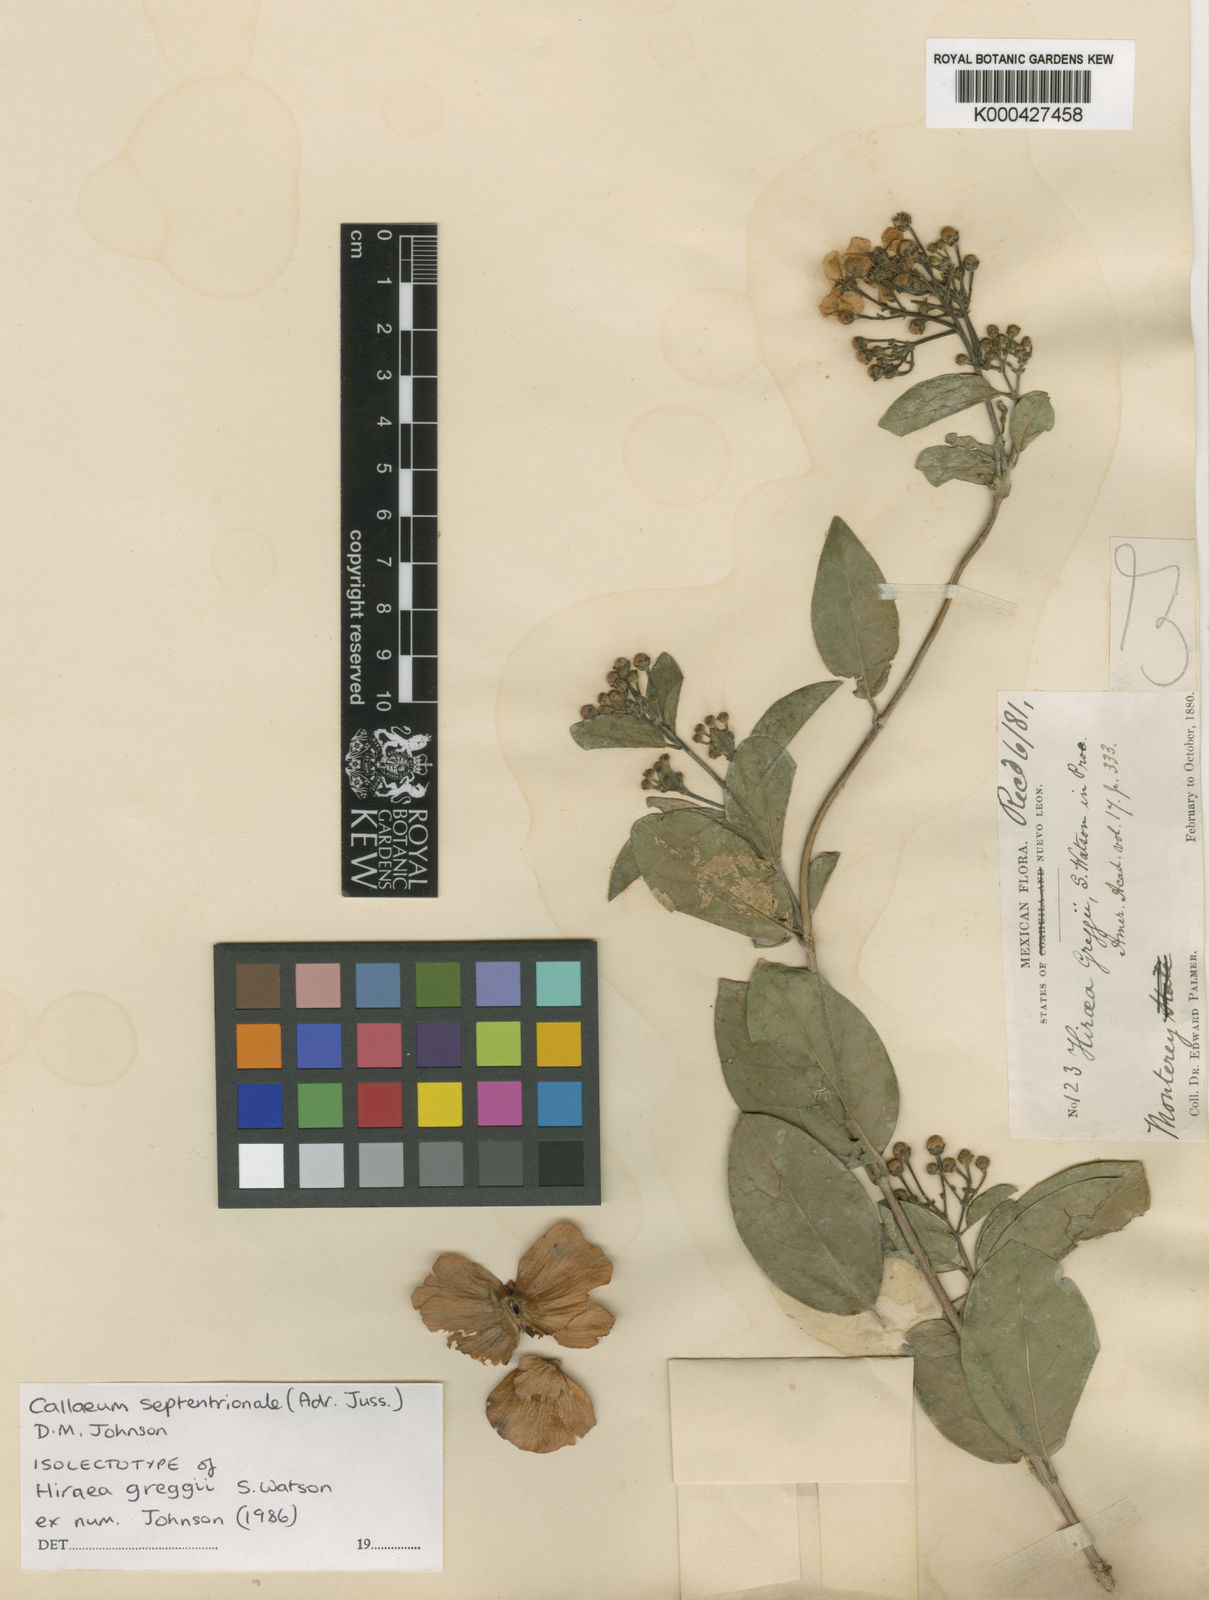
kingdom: Plantae
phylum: Tracheophyta
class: Magnoliopsida
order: Malpighiales
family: Malpighiaceae
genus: Callaeum
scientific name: Callaeum septentrionale
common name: Naranjillo
